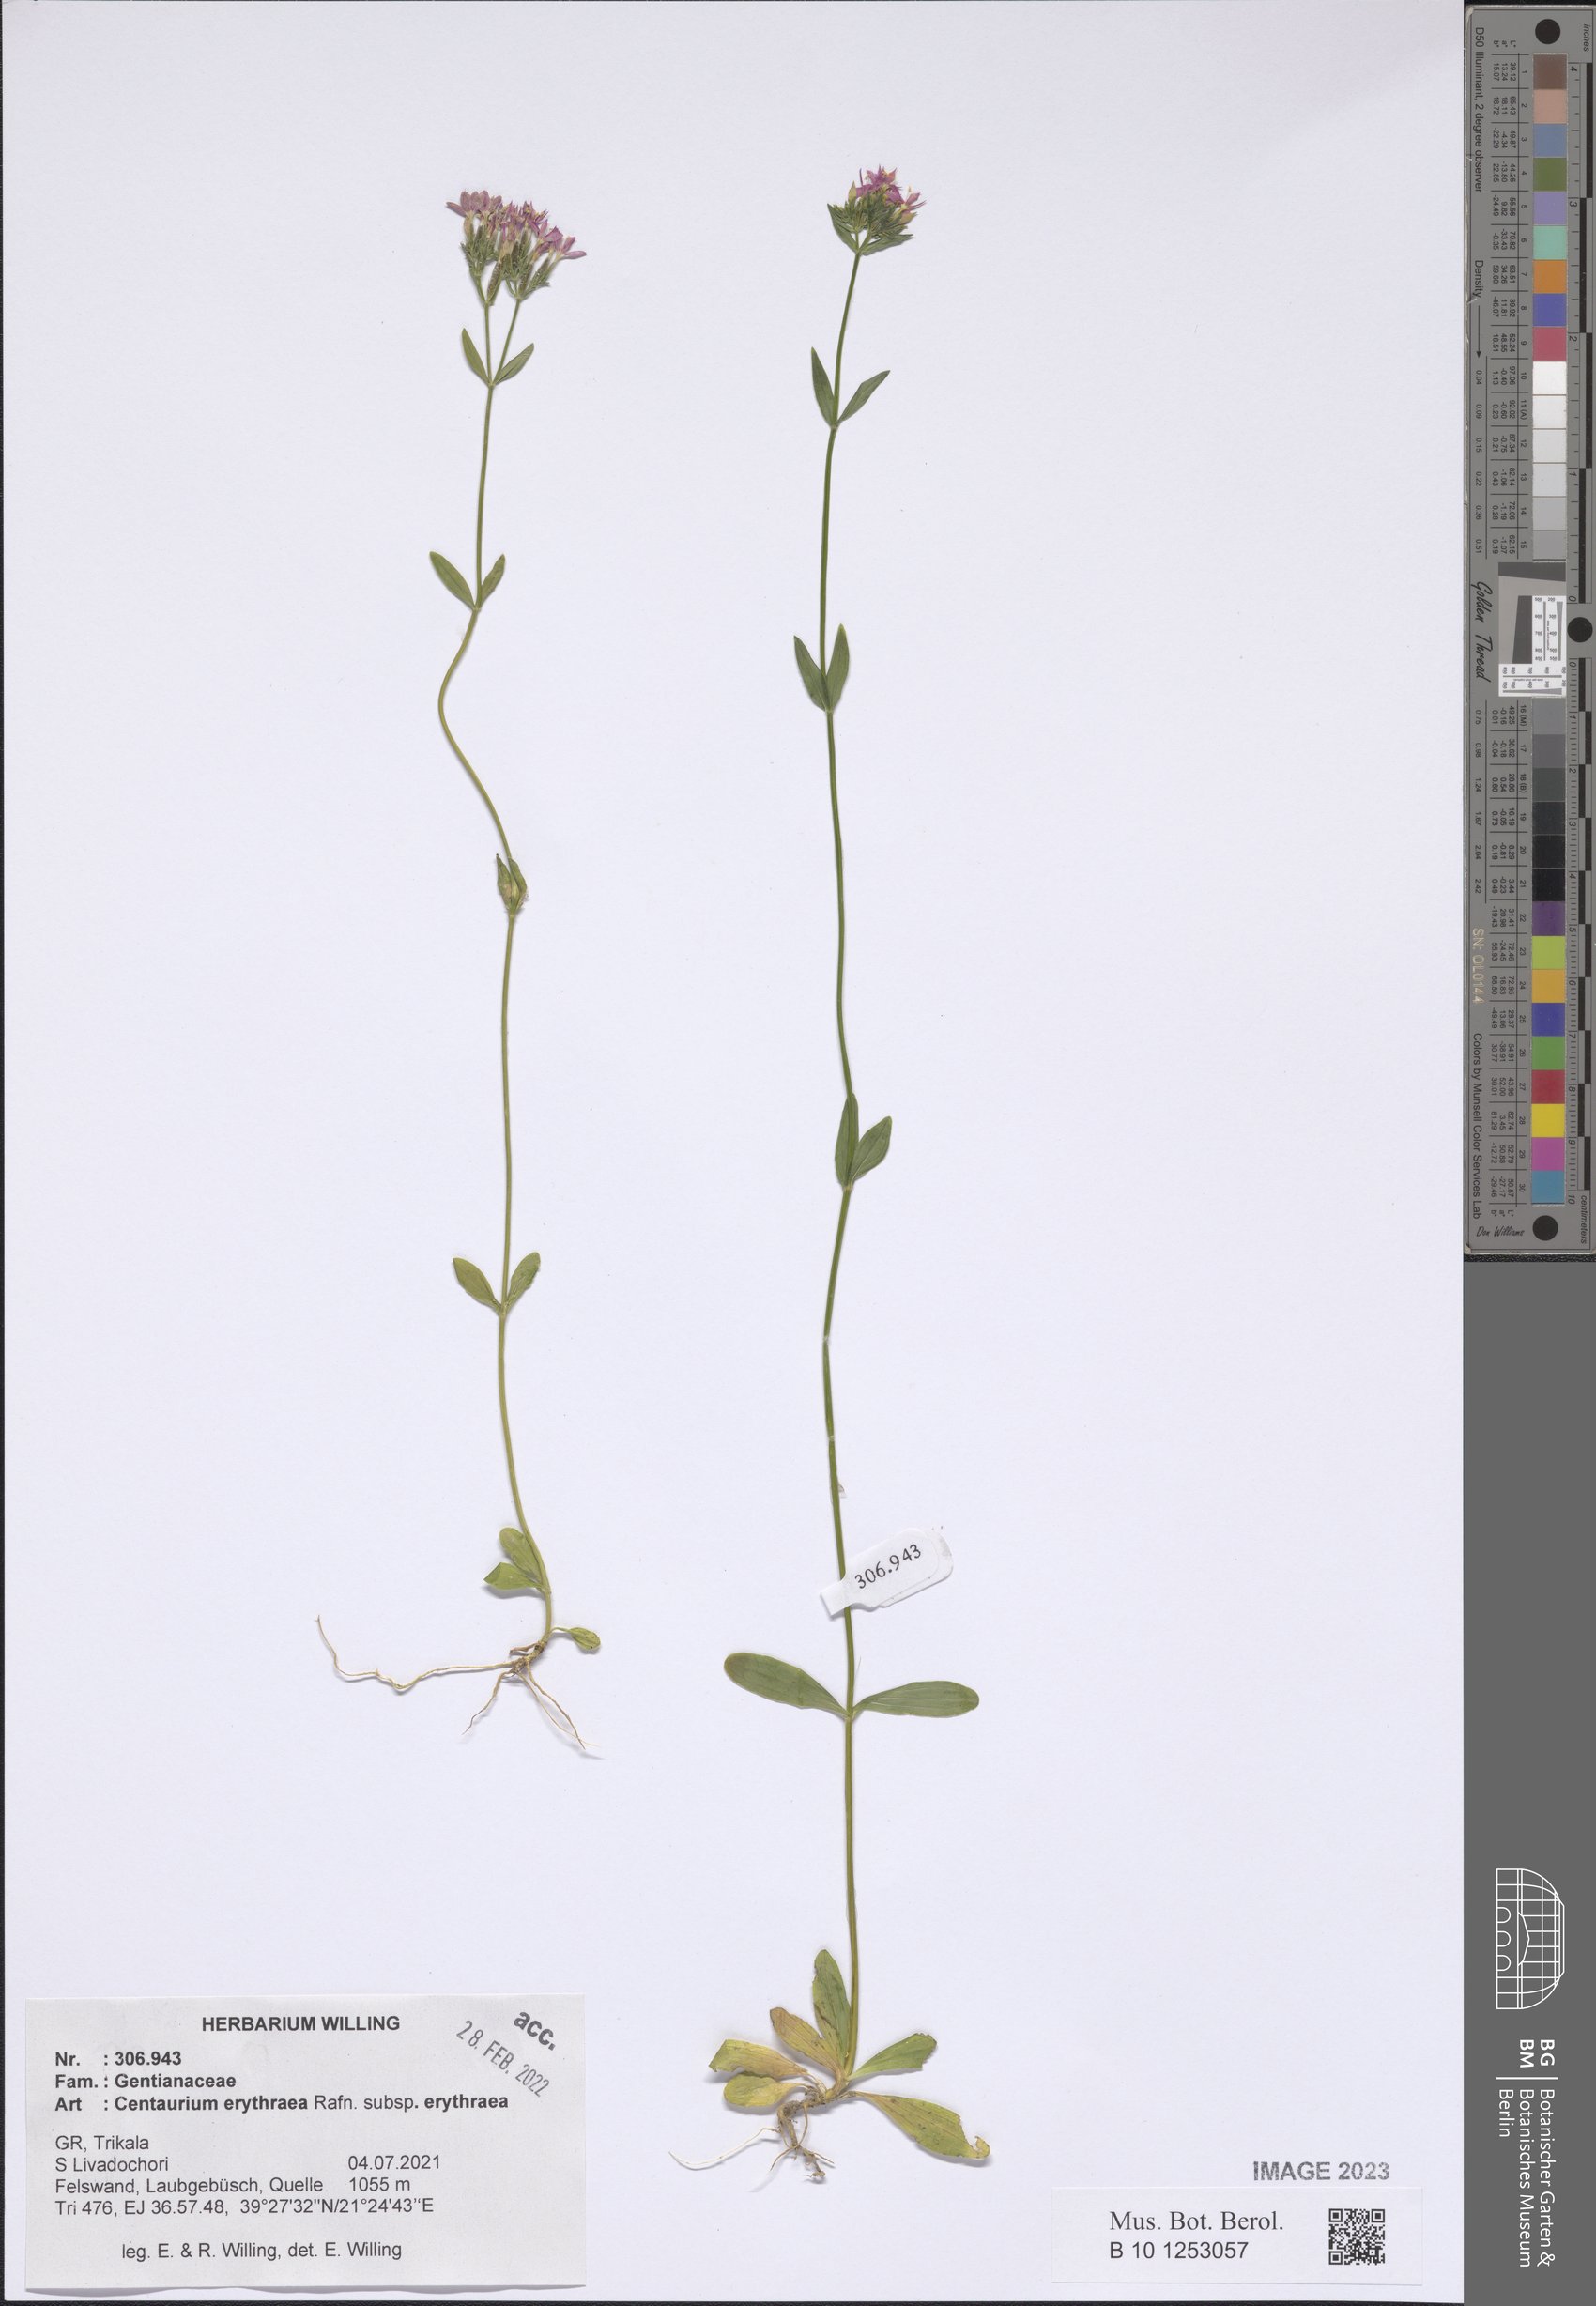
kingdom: Plantae
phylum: Tracheophyta
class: Magnoliopsida
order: Gentianales
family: Gentianaceae
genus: Centaurium
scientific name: Centaurium erythraea
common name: Common centaury
